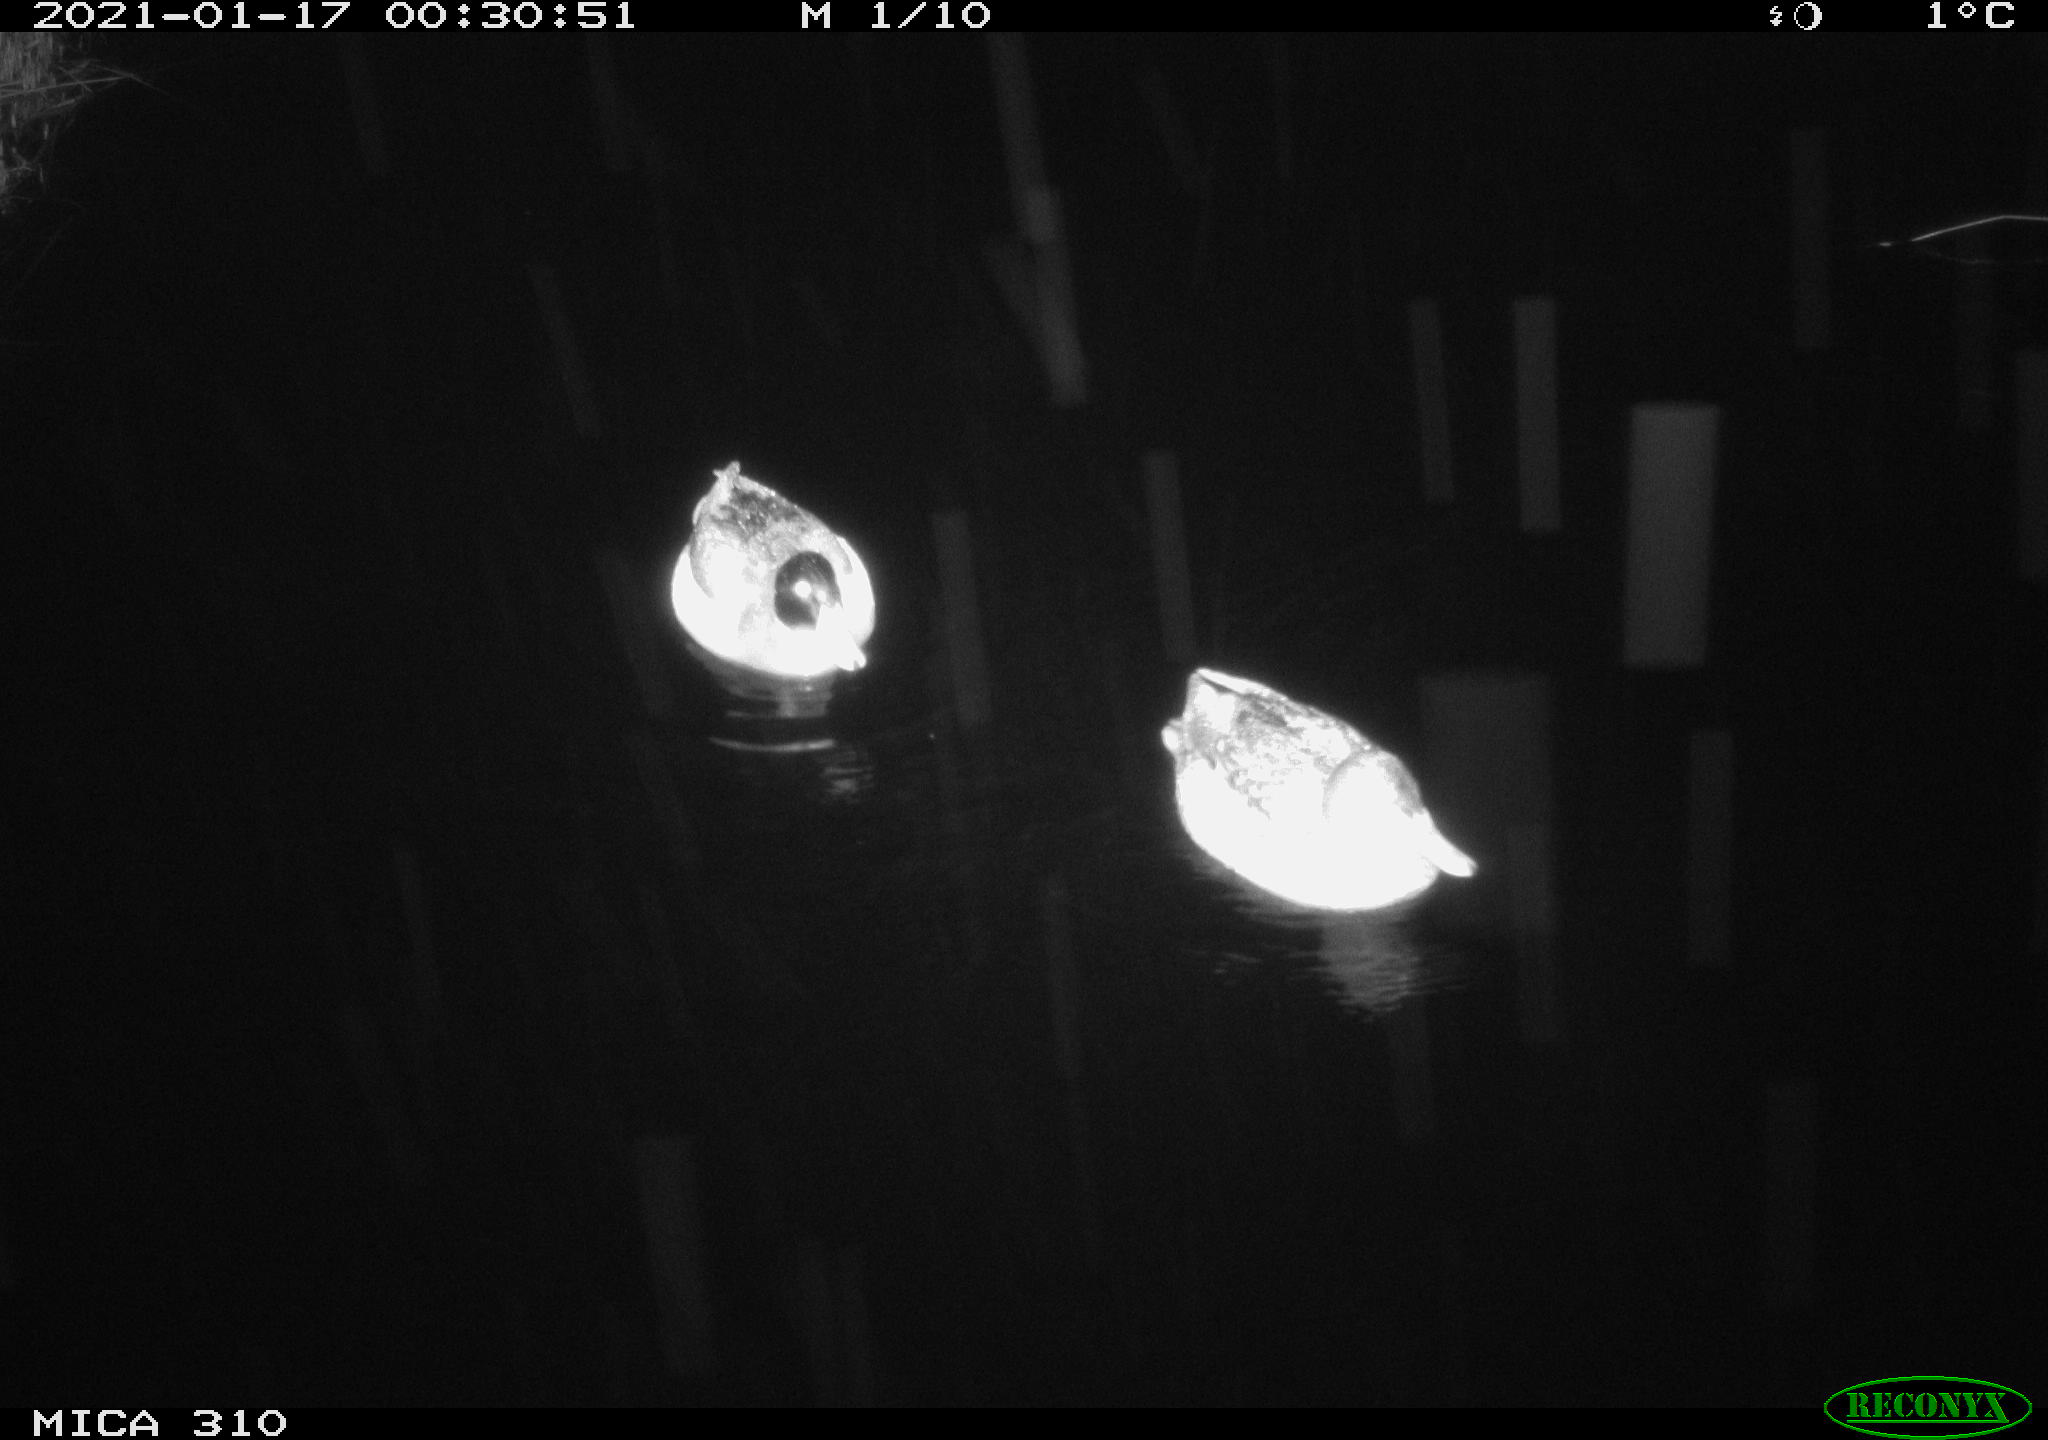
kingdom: Animalia
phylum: Chordata
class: Aves
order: Anseriformes
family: Anatidae
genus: Anas
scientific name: Anas platyrhynchos
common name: Mallard
